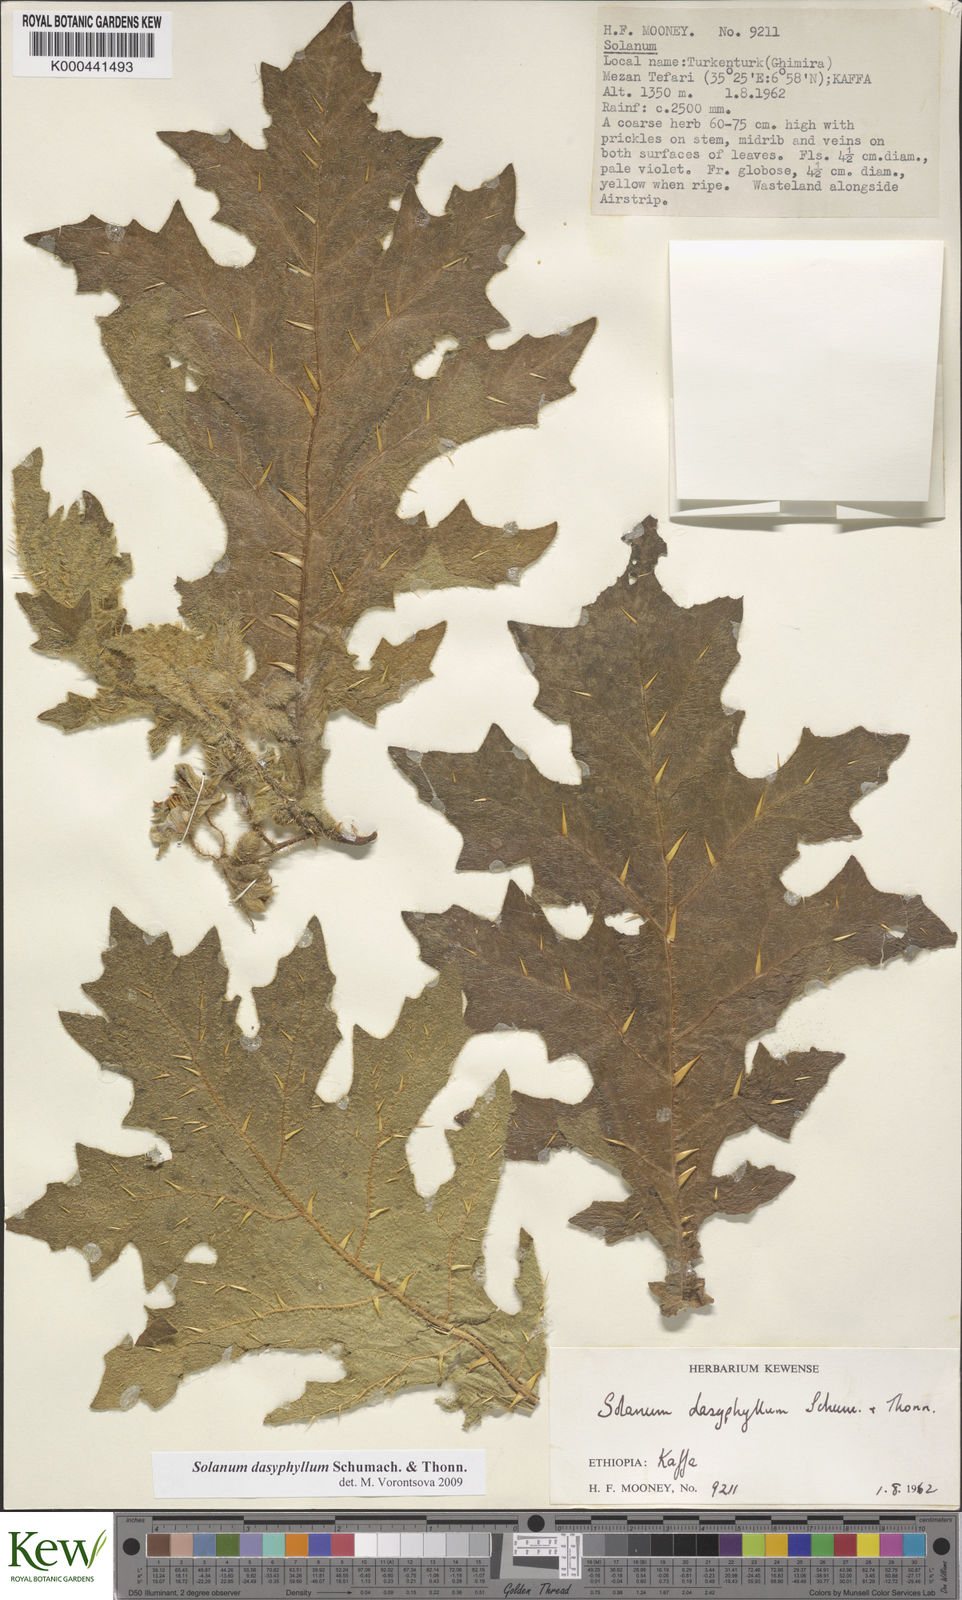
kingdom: Plantae
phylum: Tracheophyta
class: Magnoliopsida
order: Solanales
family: Solanaceae
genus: Solanum
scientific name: Solanum dasyphyllum
